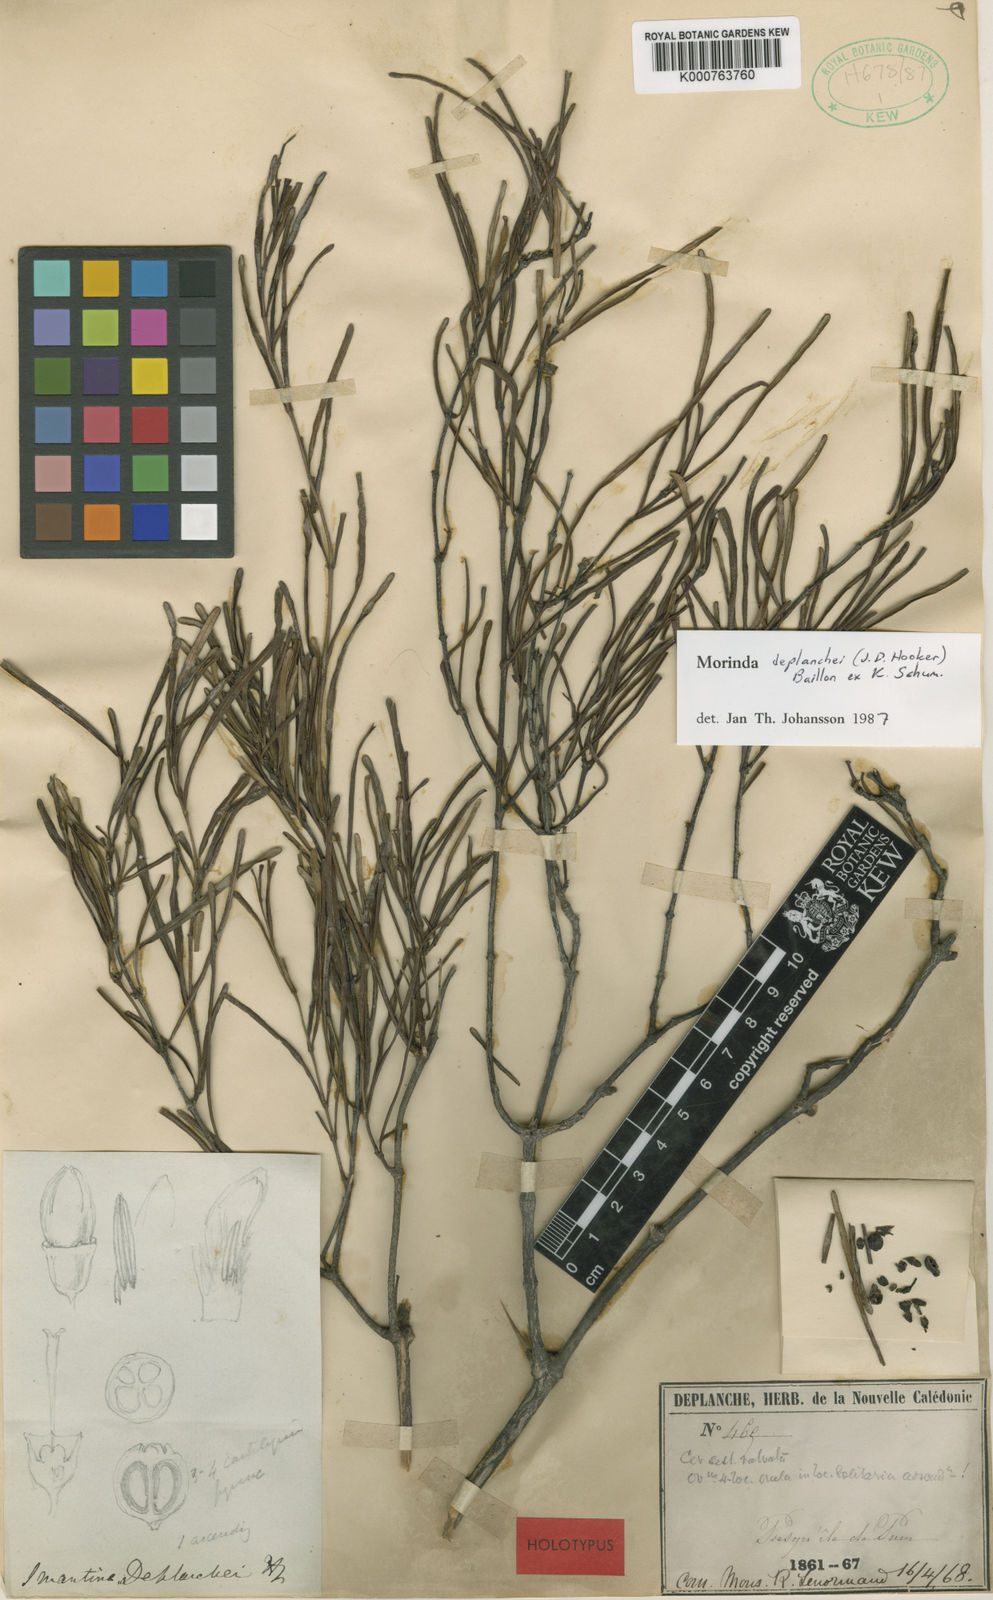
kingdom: Plantae
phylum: Tracheophyta
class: Magnoliopsida
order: Gentianales
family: Rubiaceae
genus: Gynochthodes
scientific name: Gynochthodes deplanchei
